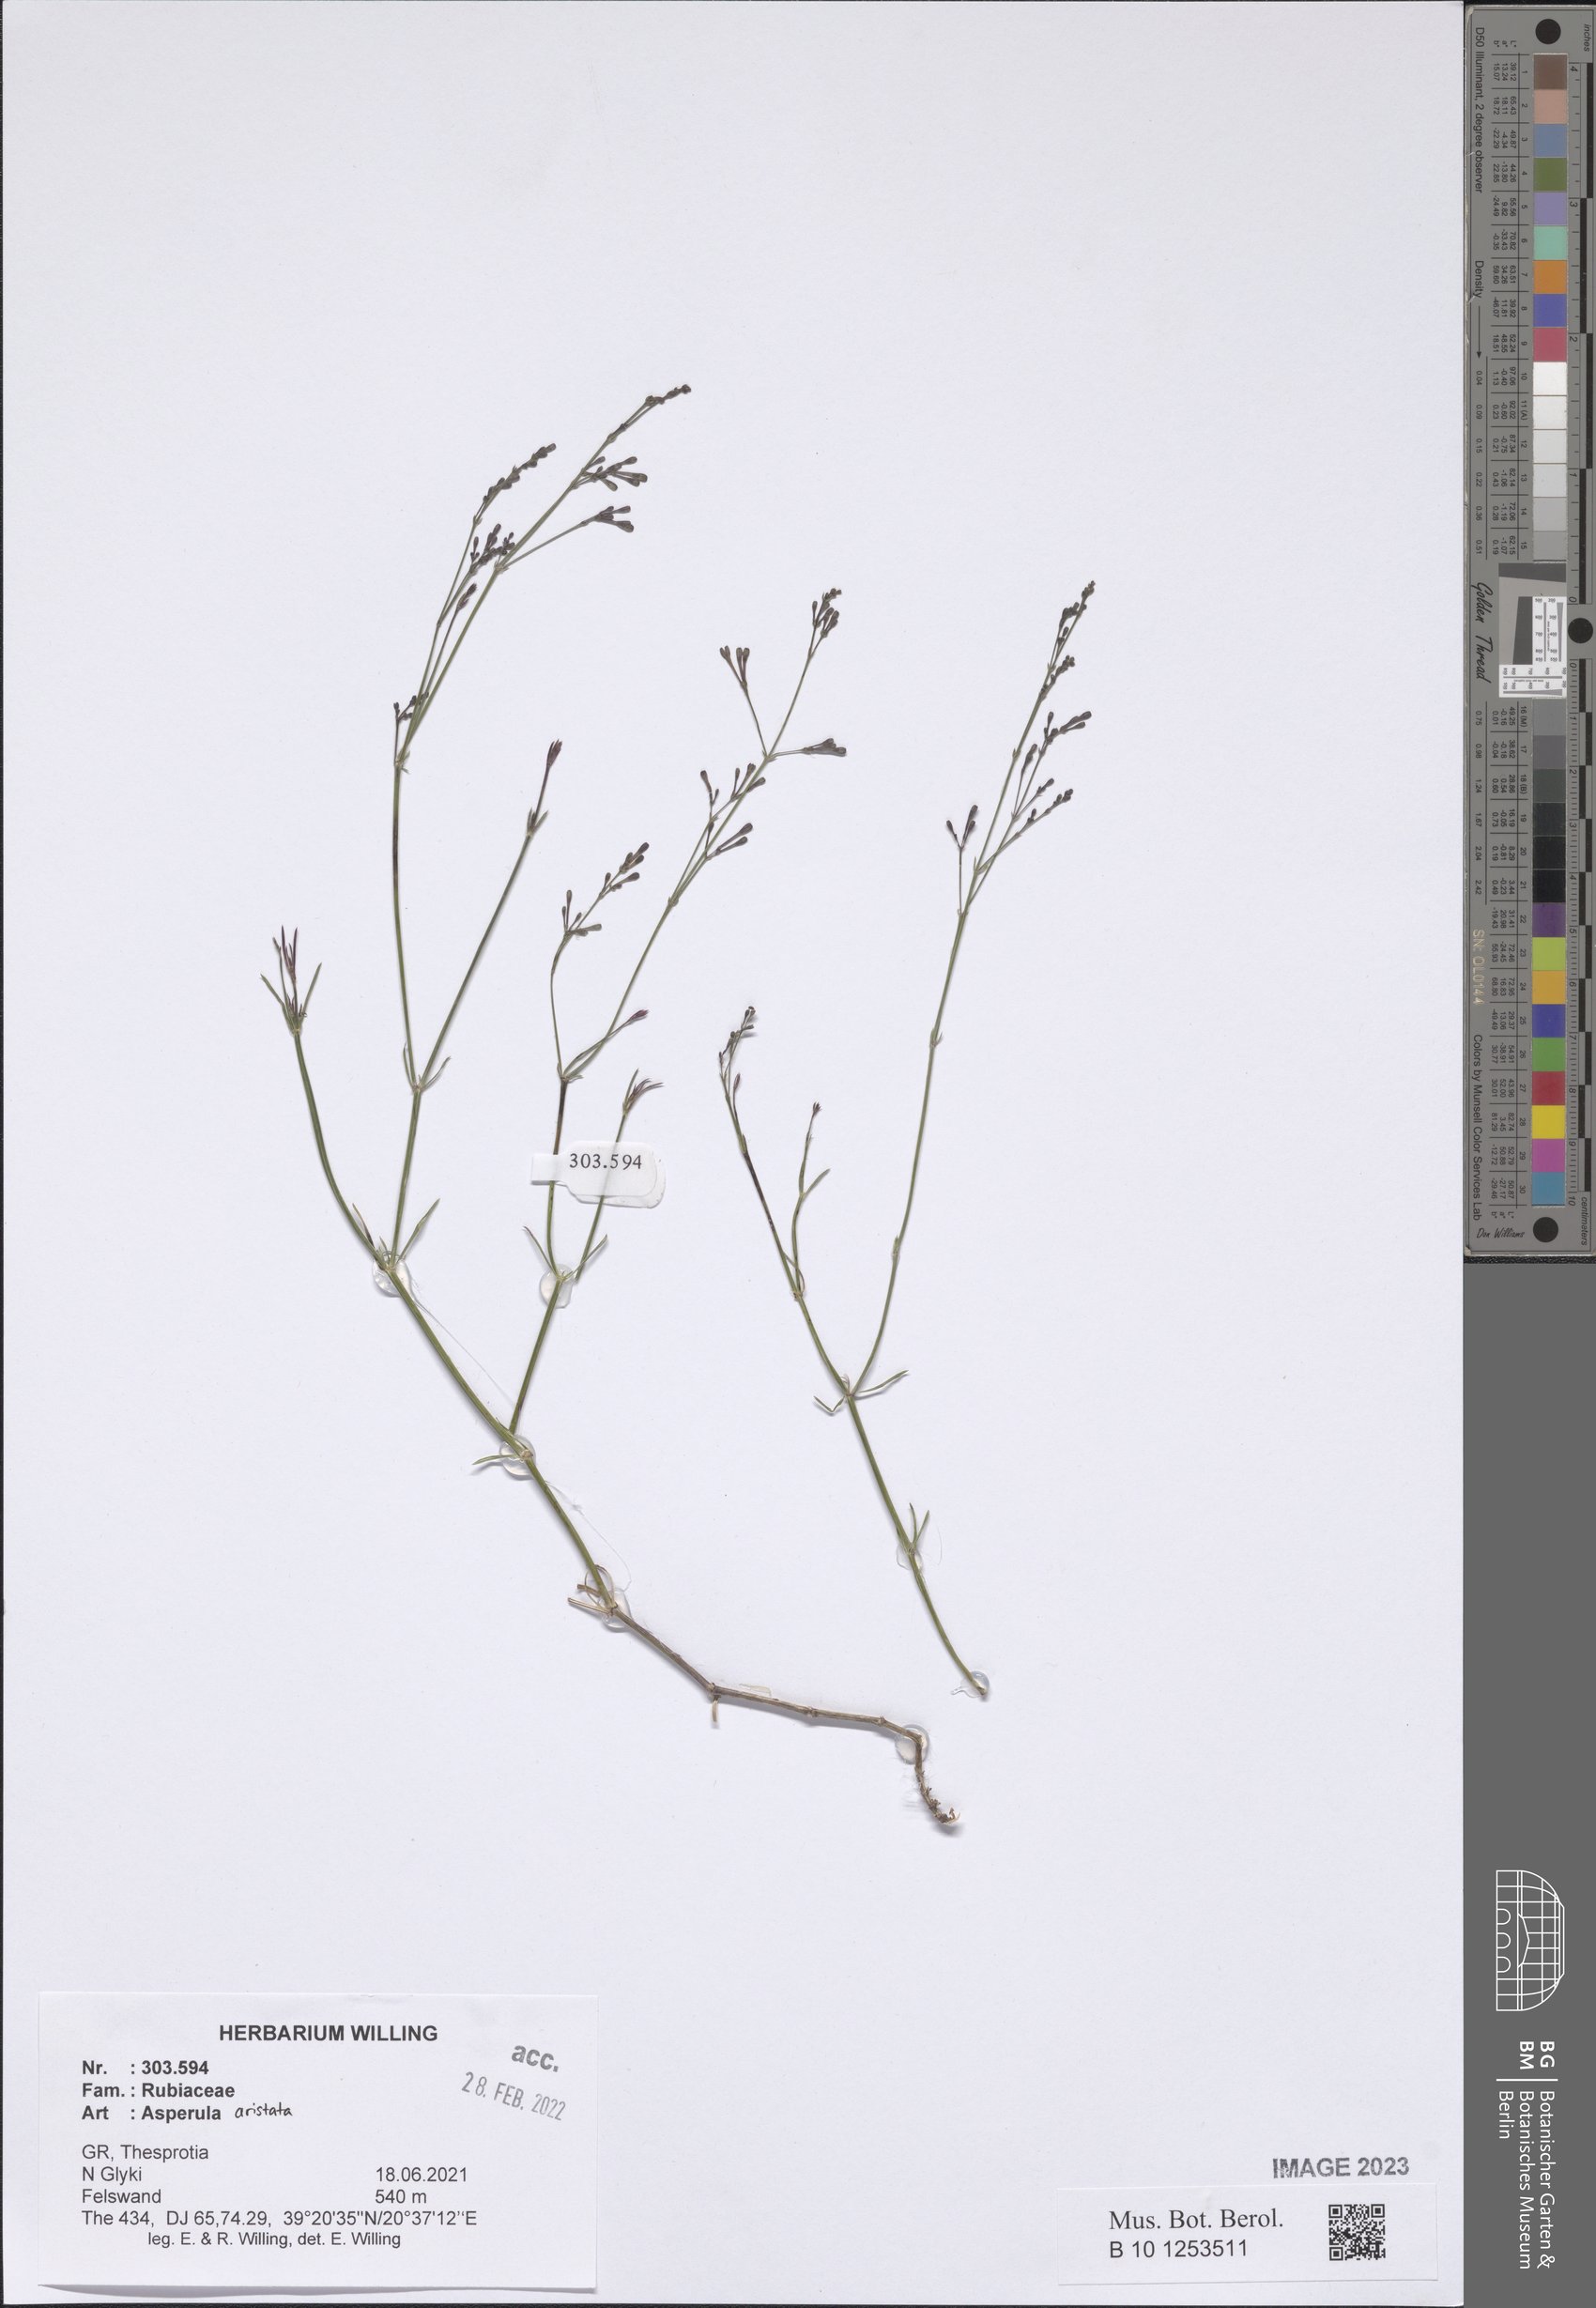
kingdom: Plantae
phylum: Tracheophyta
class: Magnoliopsida
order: Gentianales
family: Rubiaceae
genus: Cynanchica
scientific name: Cynanchica aristata
